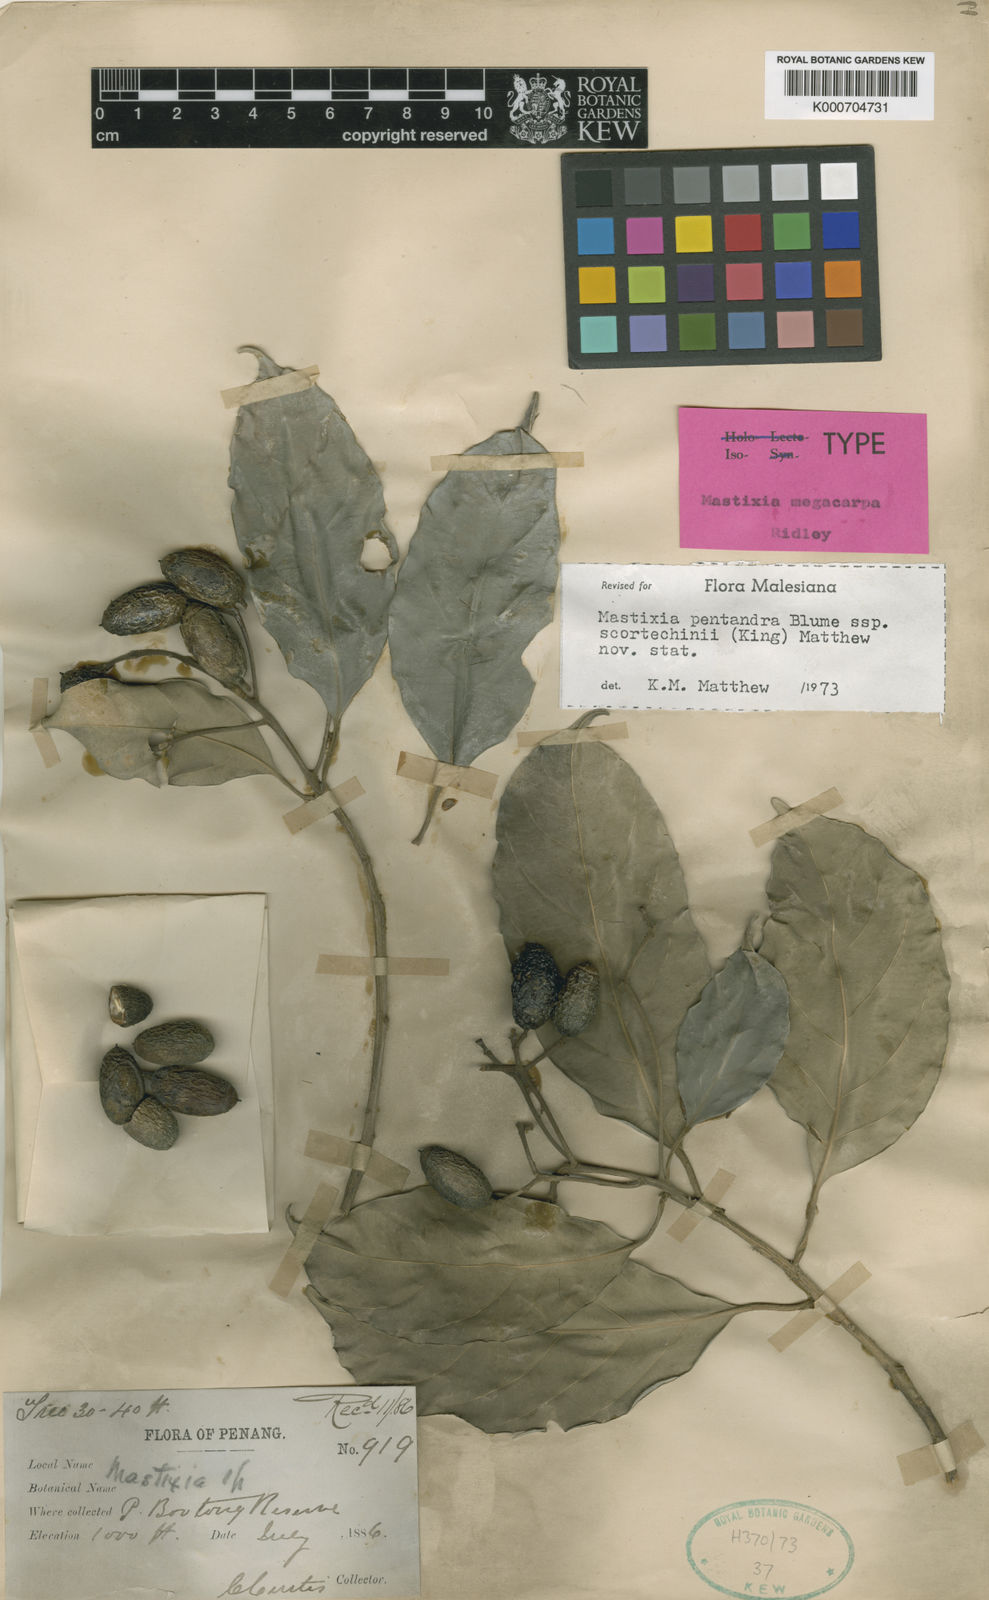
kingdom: Plantae
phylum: Tracheophyta
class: Magnoliopsida
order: Cornales
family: Nyssaceae
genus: Mastixia
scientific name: Mastixia pentandra
